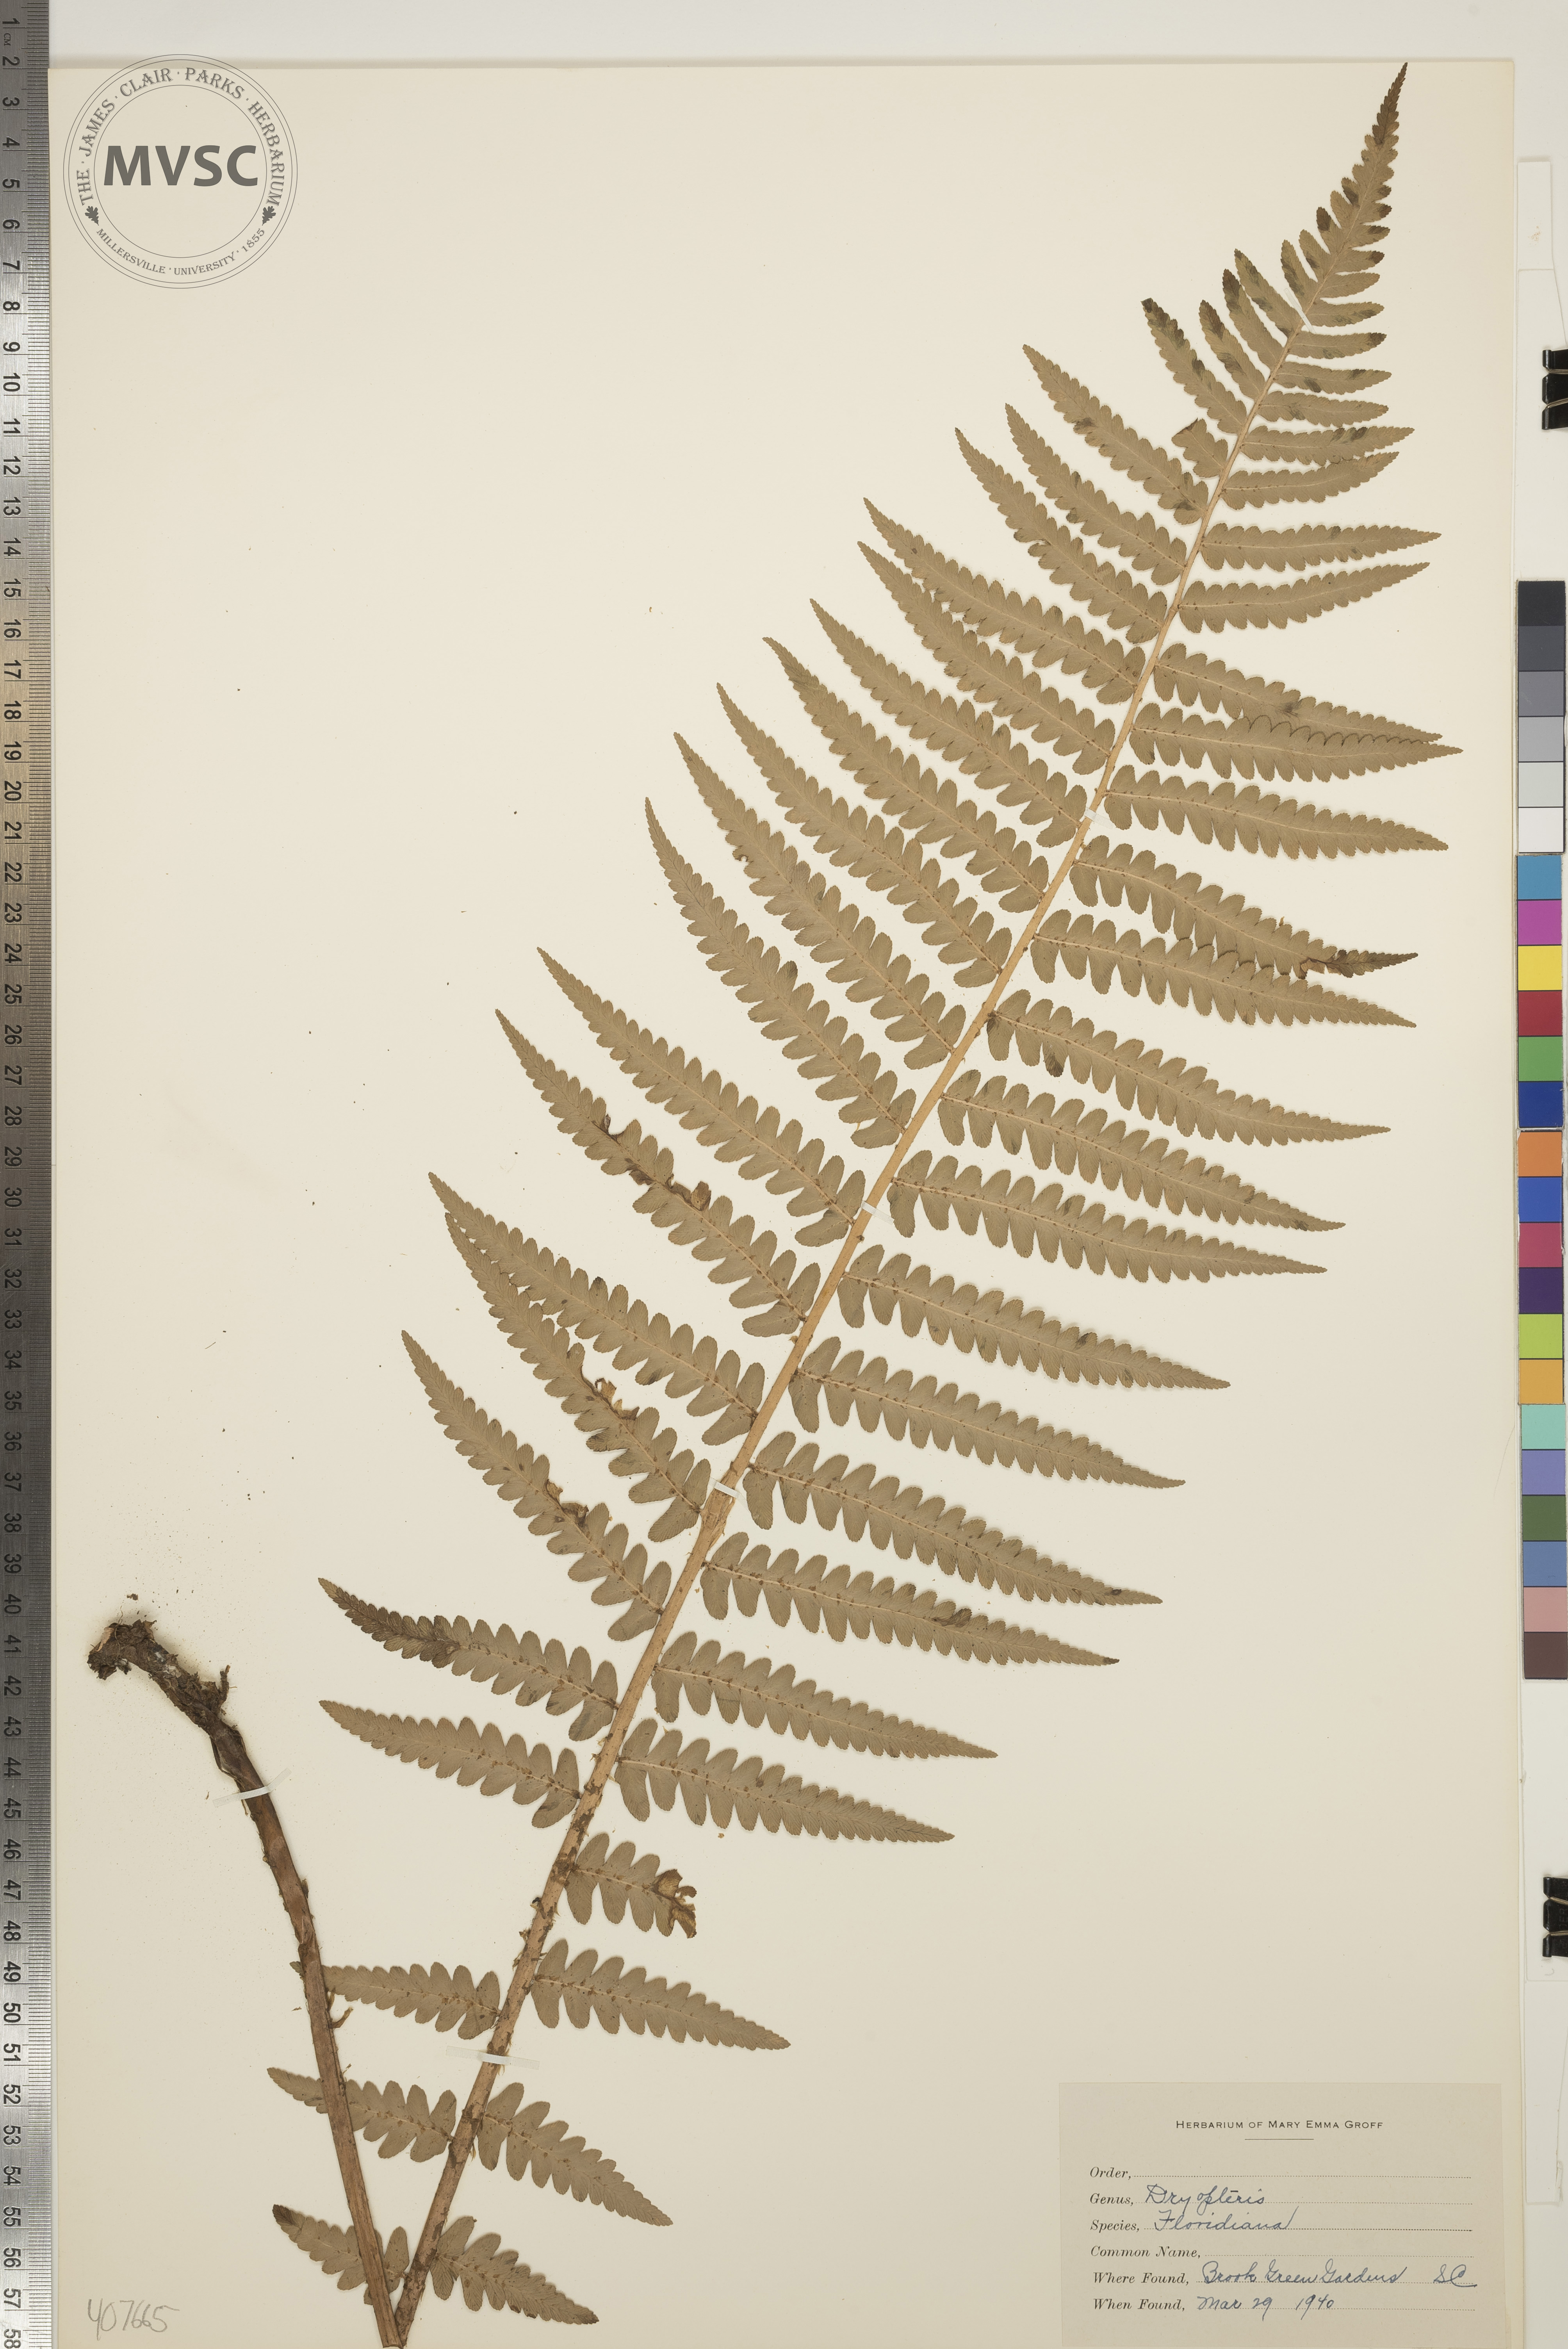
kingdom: Plantae
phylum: Tracheophyta
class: Polypodiopsida
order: Polypodiales
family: Dryopteridaceae
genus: Dryopteris
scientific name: Dryopteris ludoviciana
